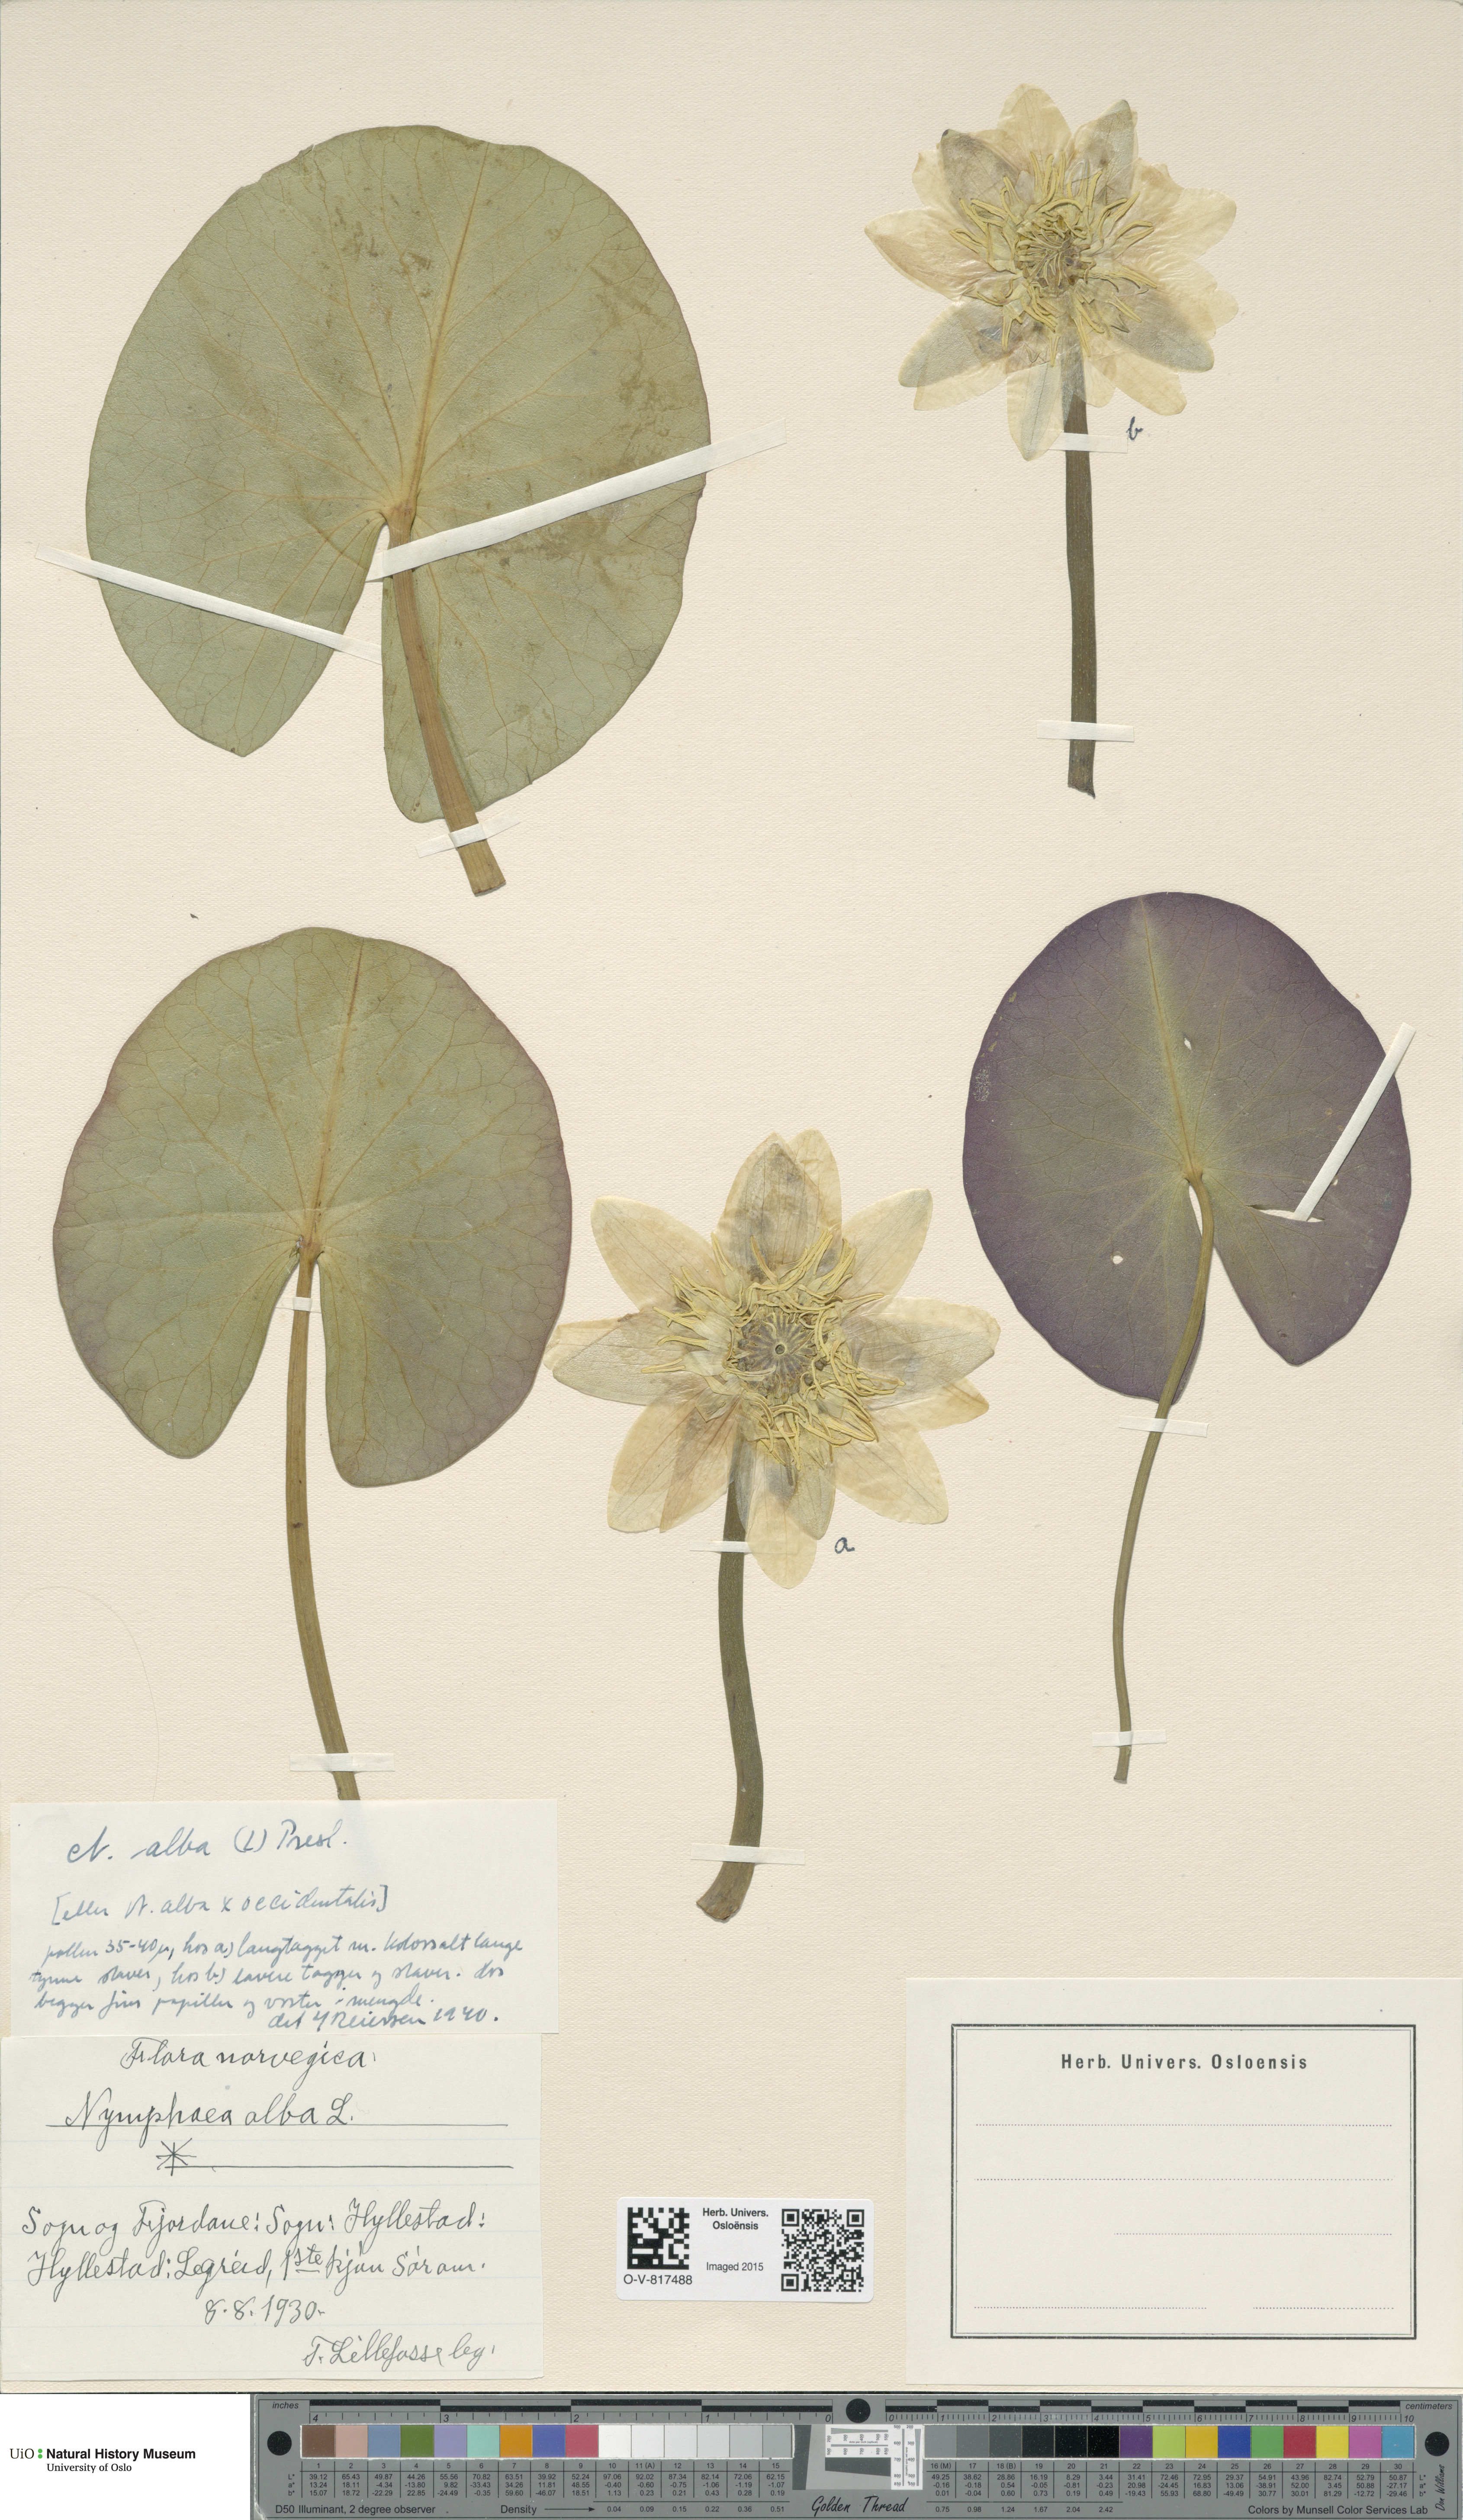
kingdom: Plantae
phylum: Tracheophyta
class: Magnoliopsida
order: Nymphaeales
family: Nymphaeaceae
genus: Nymphaea
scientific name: Nymphaea alba
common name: White water-lily
